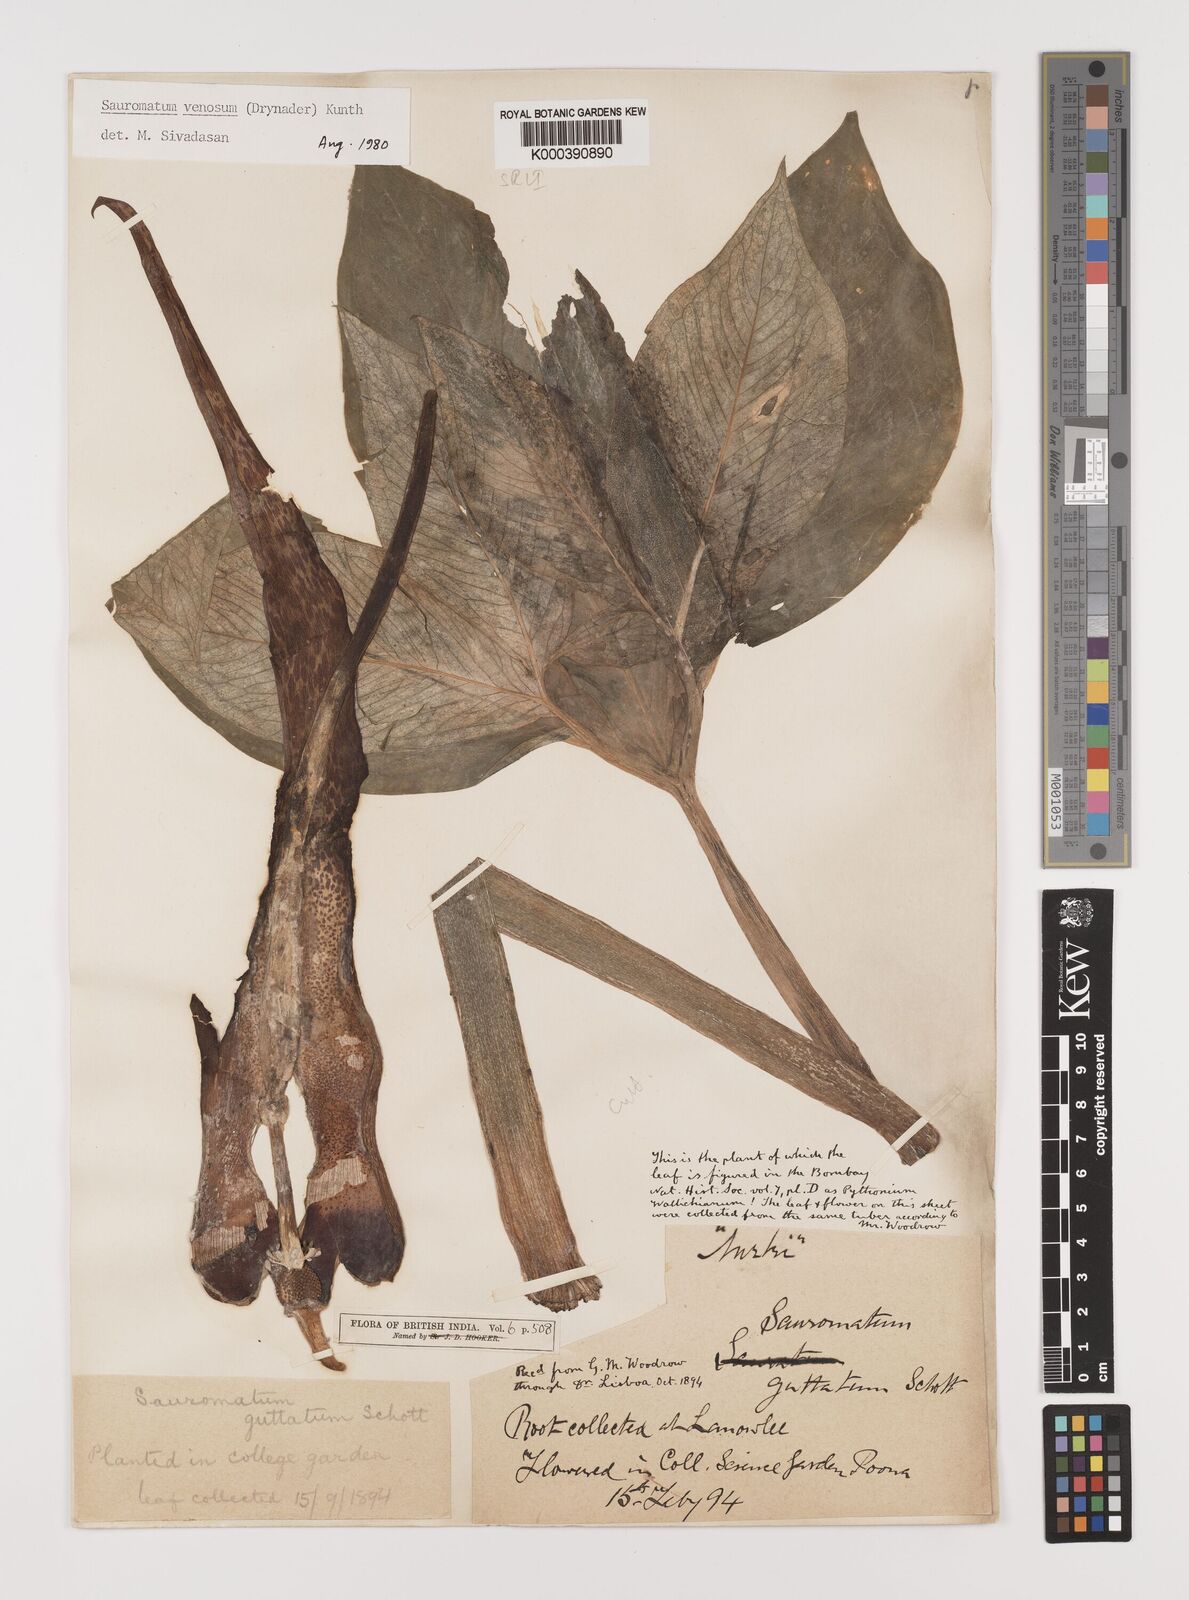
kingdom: Plantae
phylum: Tracheophyta
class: Liliopsida
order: Alismatales
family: Araceae
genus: Sauromatum
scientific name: Sauromatum venosum
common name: Voodoo lily
